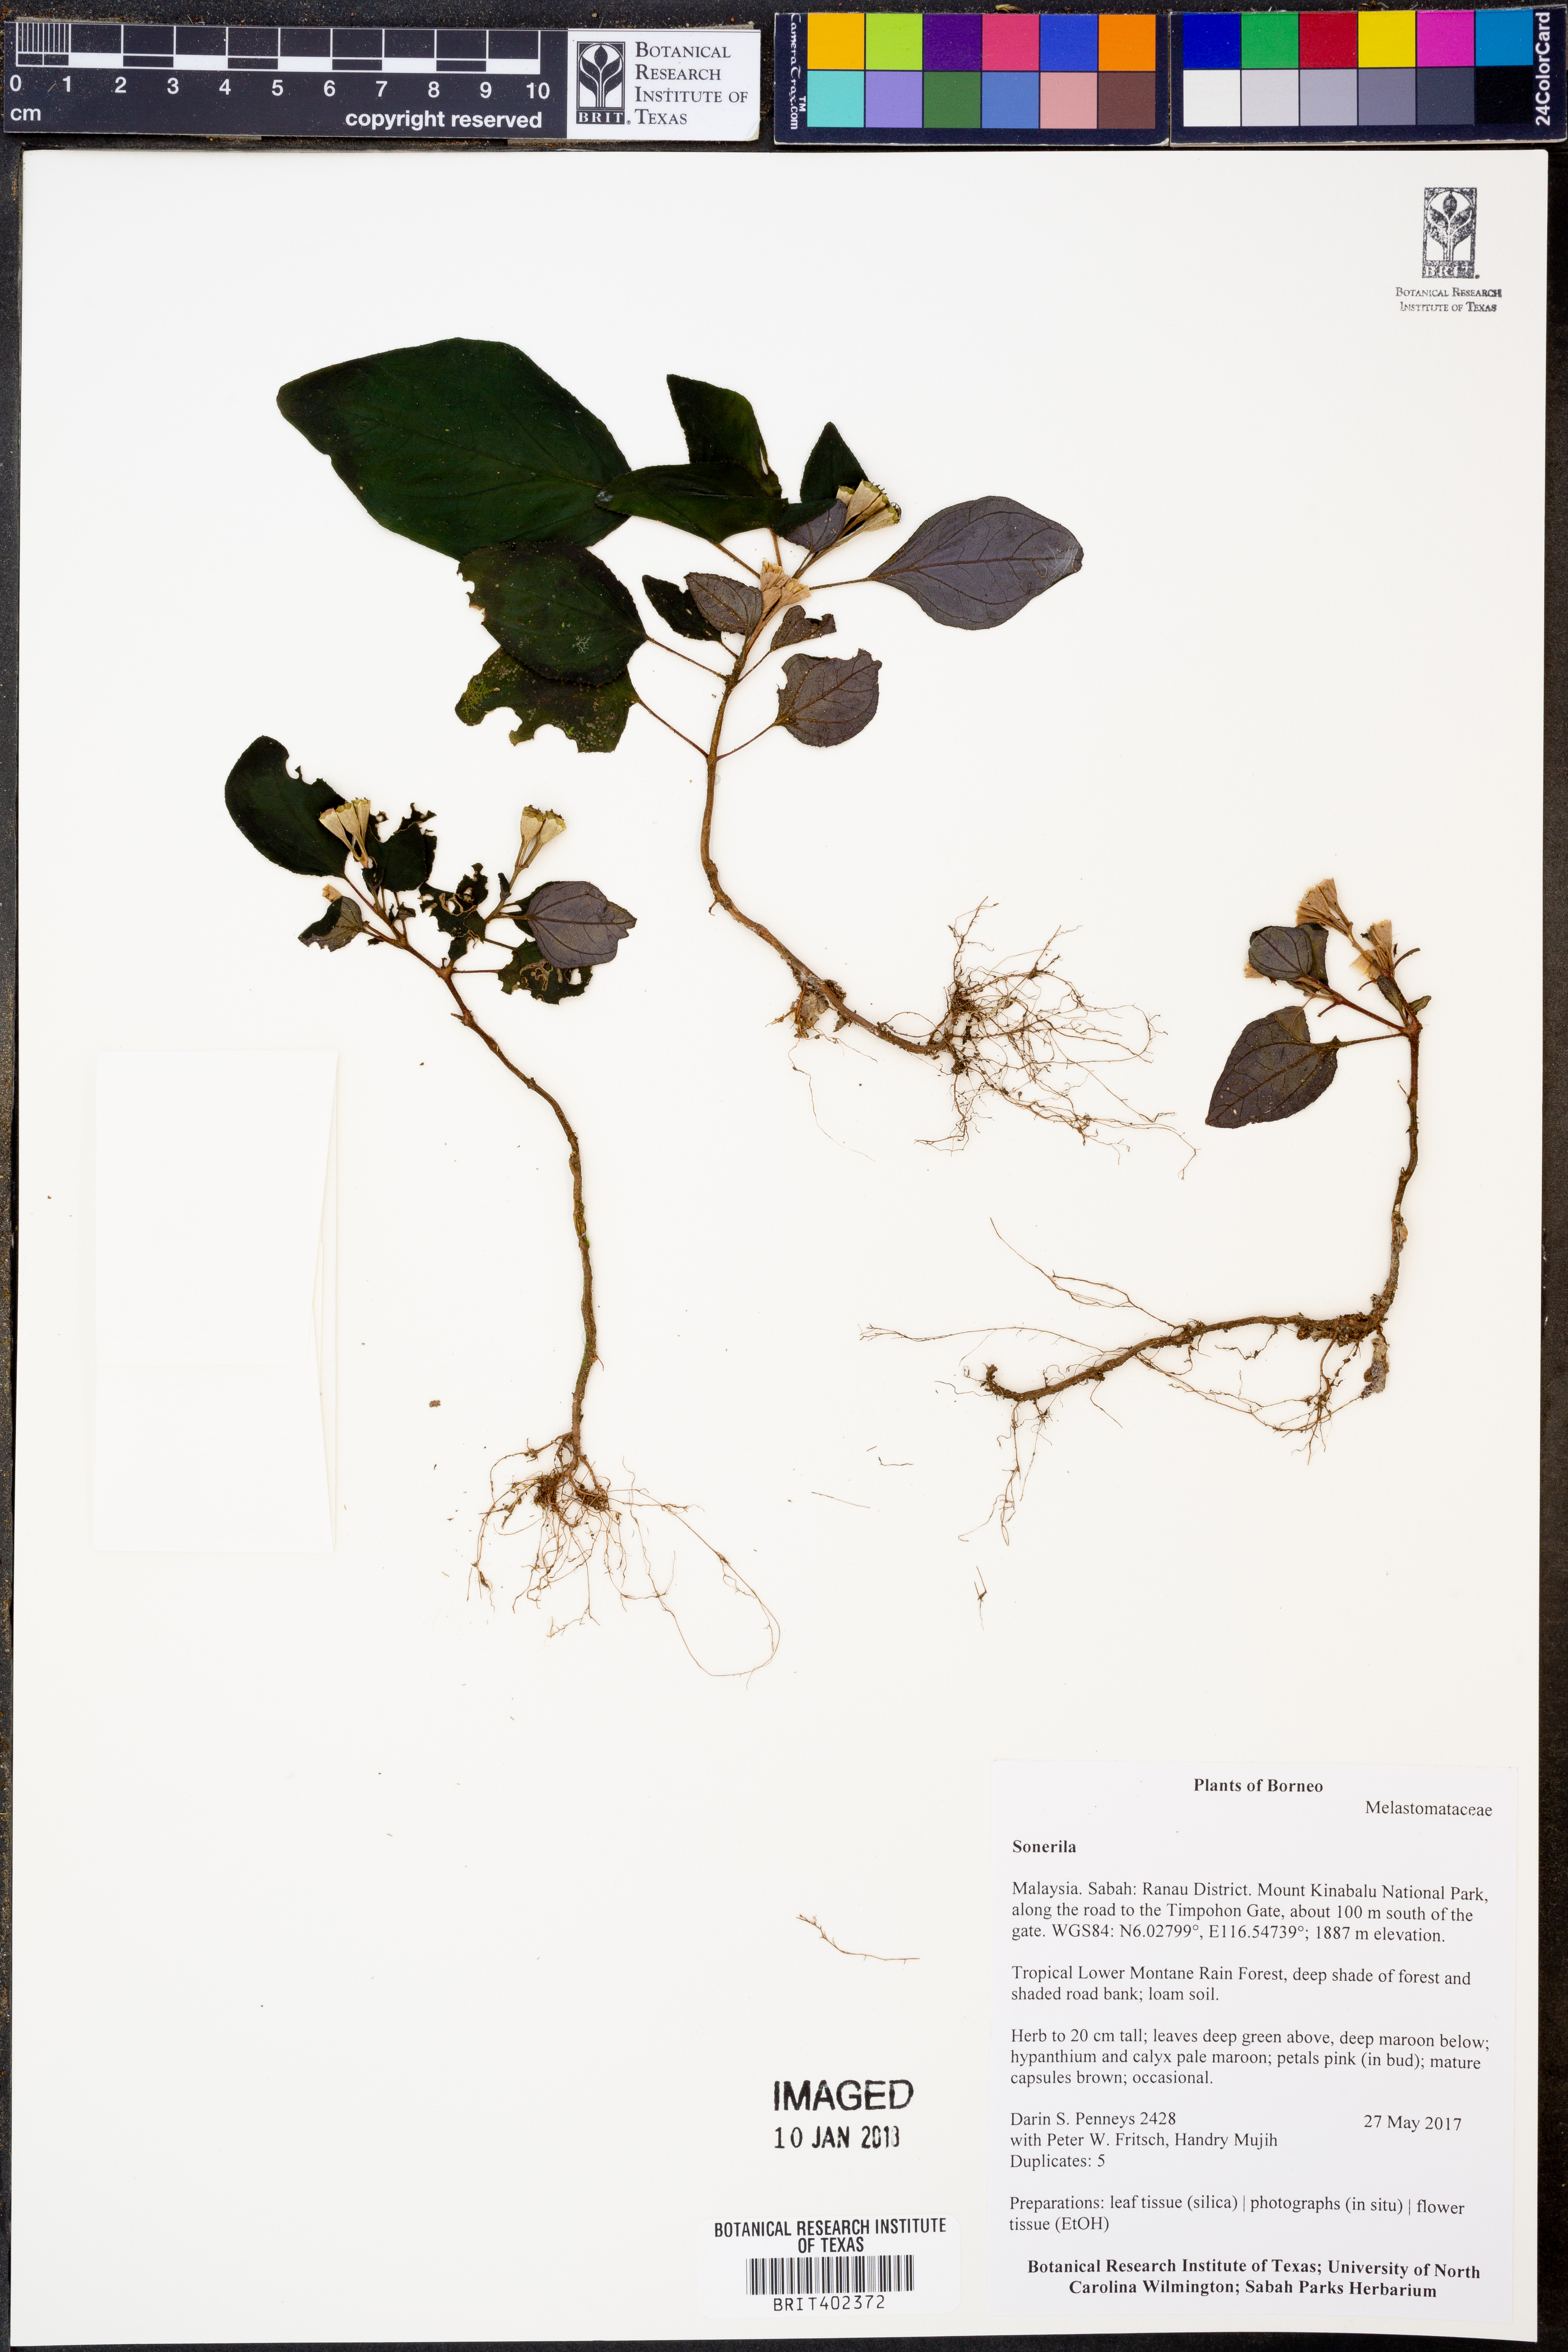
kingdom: Plantae
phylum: Tracheophyta
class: Magnoliopsida
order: Myrtales
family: Melastomataceae
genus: Sonerila
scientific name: Sonerila
